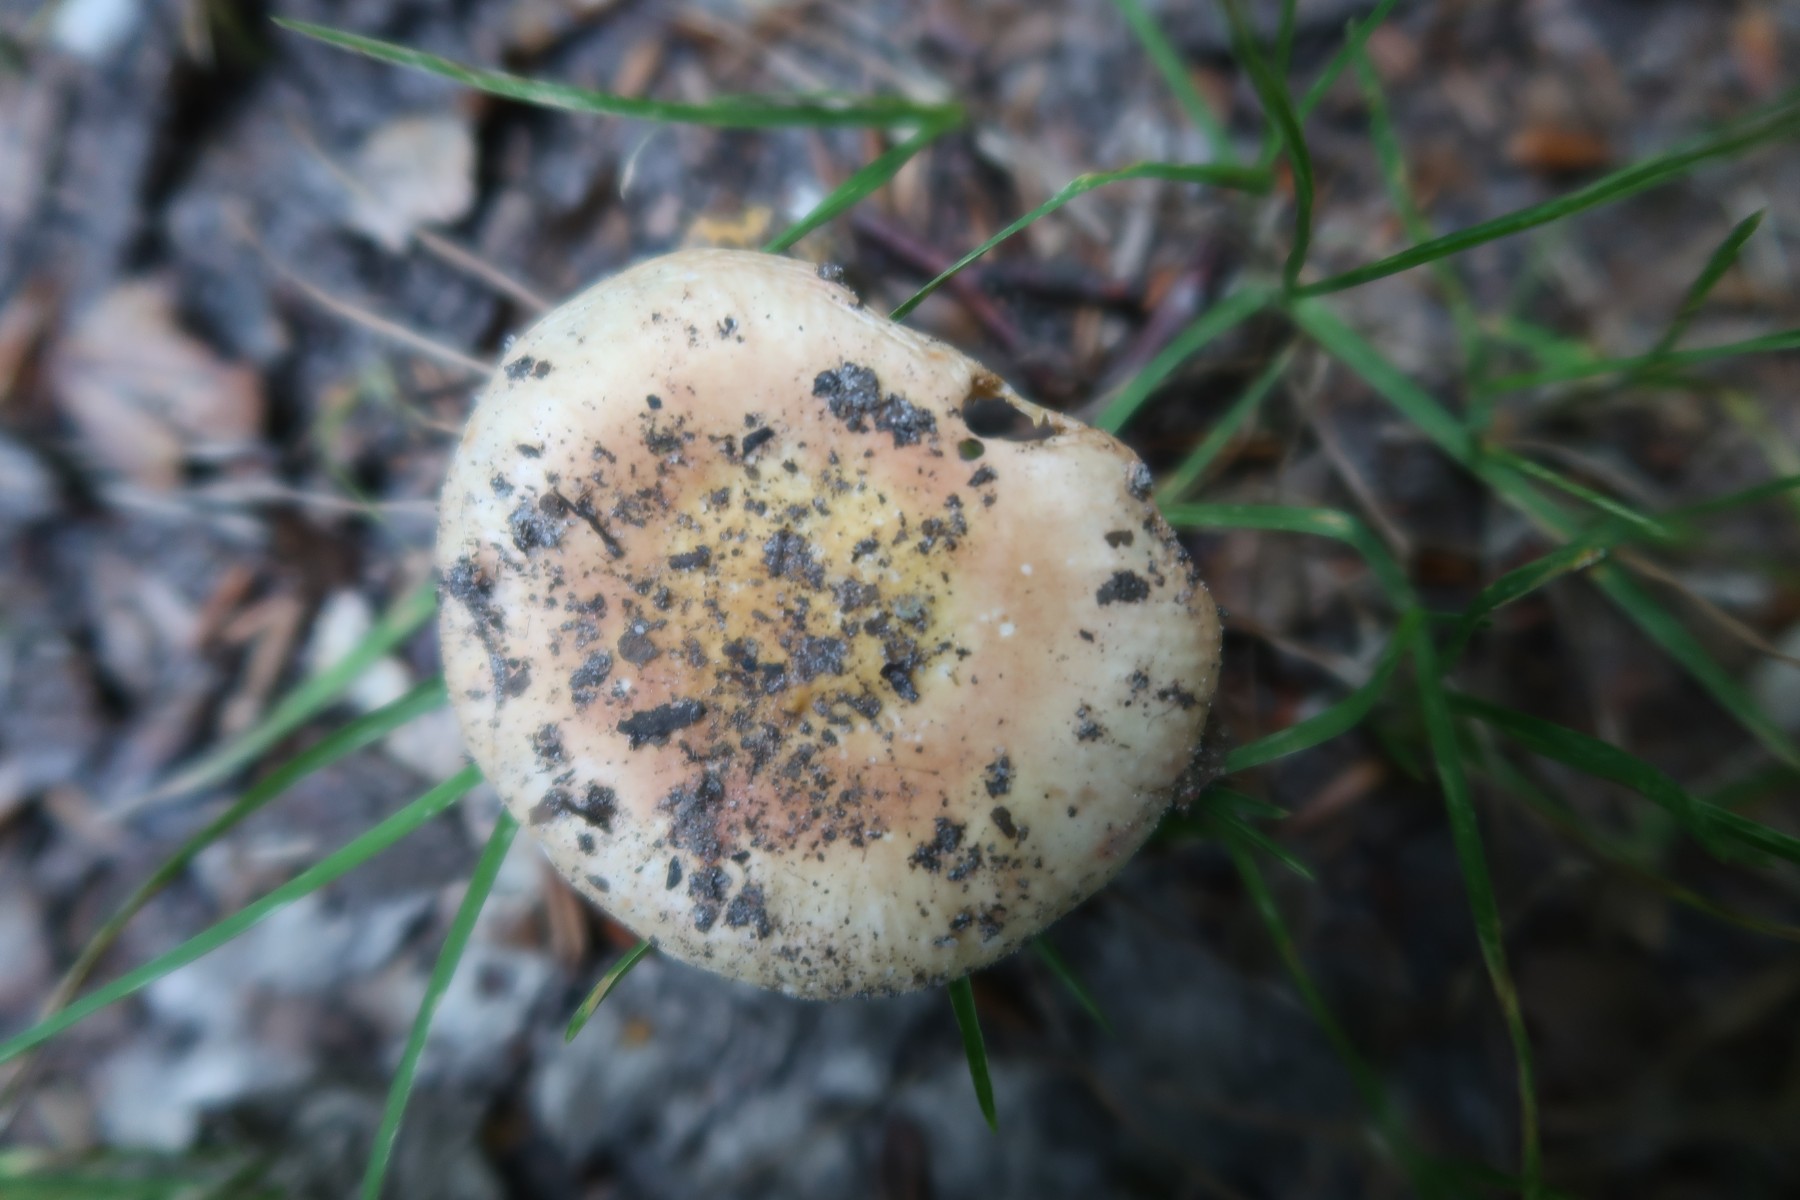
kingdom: Fungi
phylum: Basidiomycota
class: Agaricomycetes
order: Russulales
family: Russulaceae
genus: Russula
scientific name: Russula risigallina
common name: abrikos-skørhat
